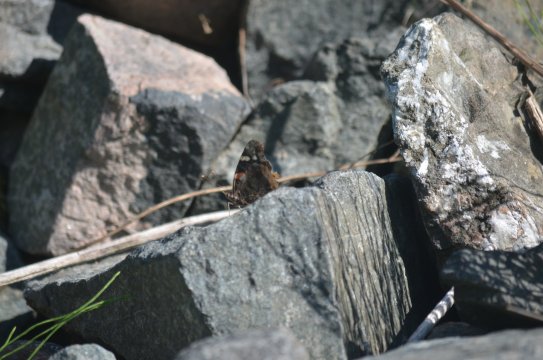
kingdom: Animalia
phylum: Arthropoda
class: Insecta
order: Lepidoptera
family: Nymphalidae
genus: Vanessa
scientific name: Vanessa atalanta
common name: Red Admiral
